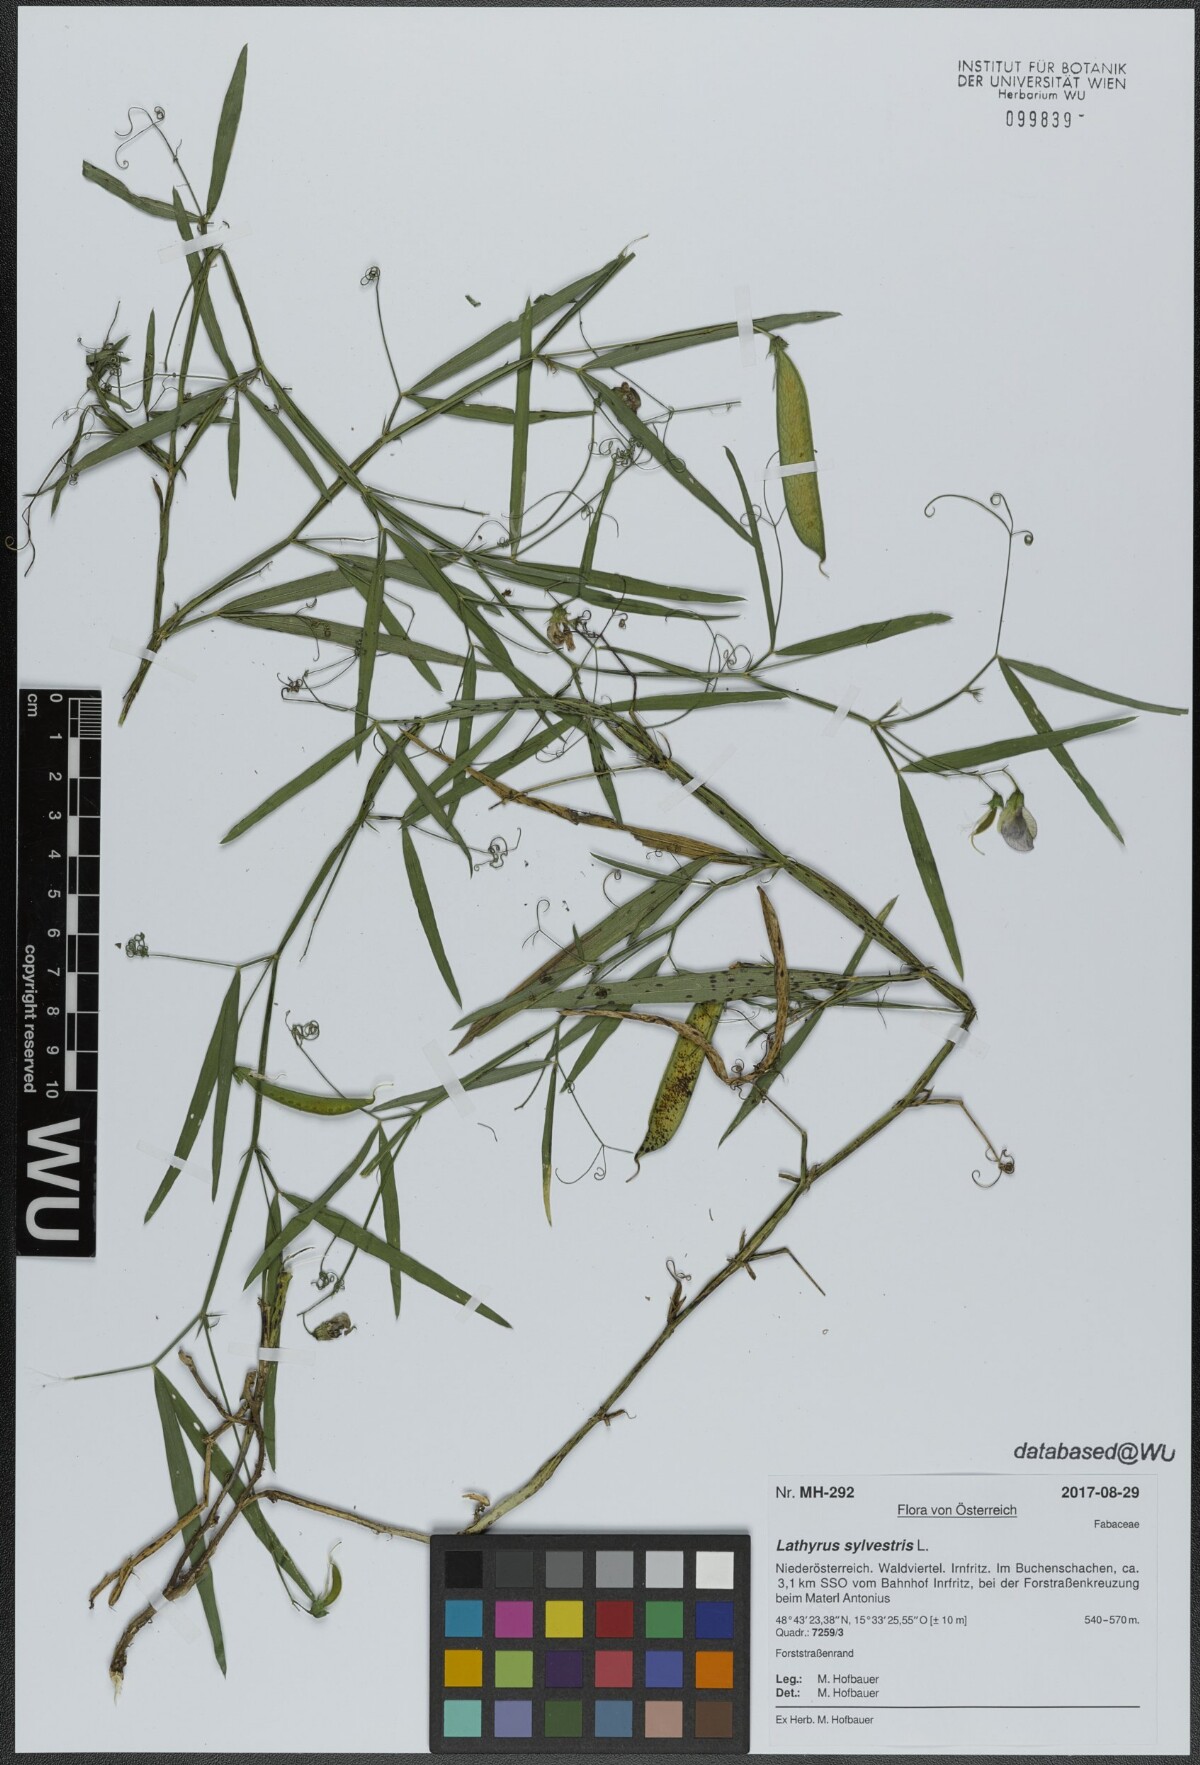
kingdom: Plantae
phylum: Tracheophyta
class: Magnoliopsida
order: Fabales
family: Fabaceae
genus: Lathyrus
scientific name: Lathyrus sylvestris
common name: Flat pea
